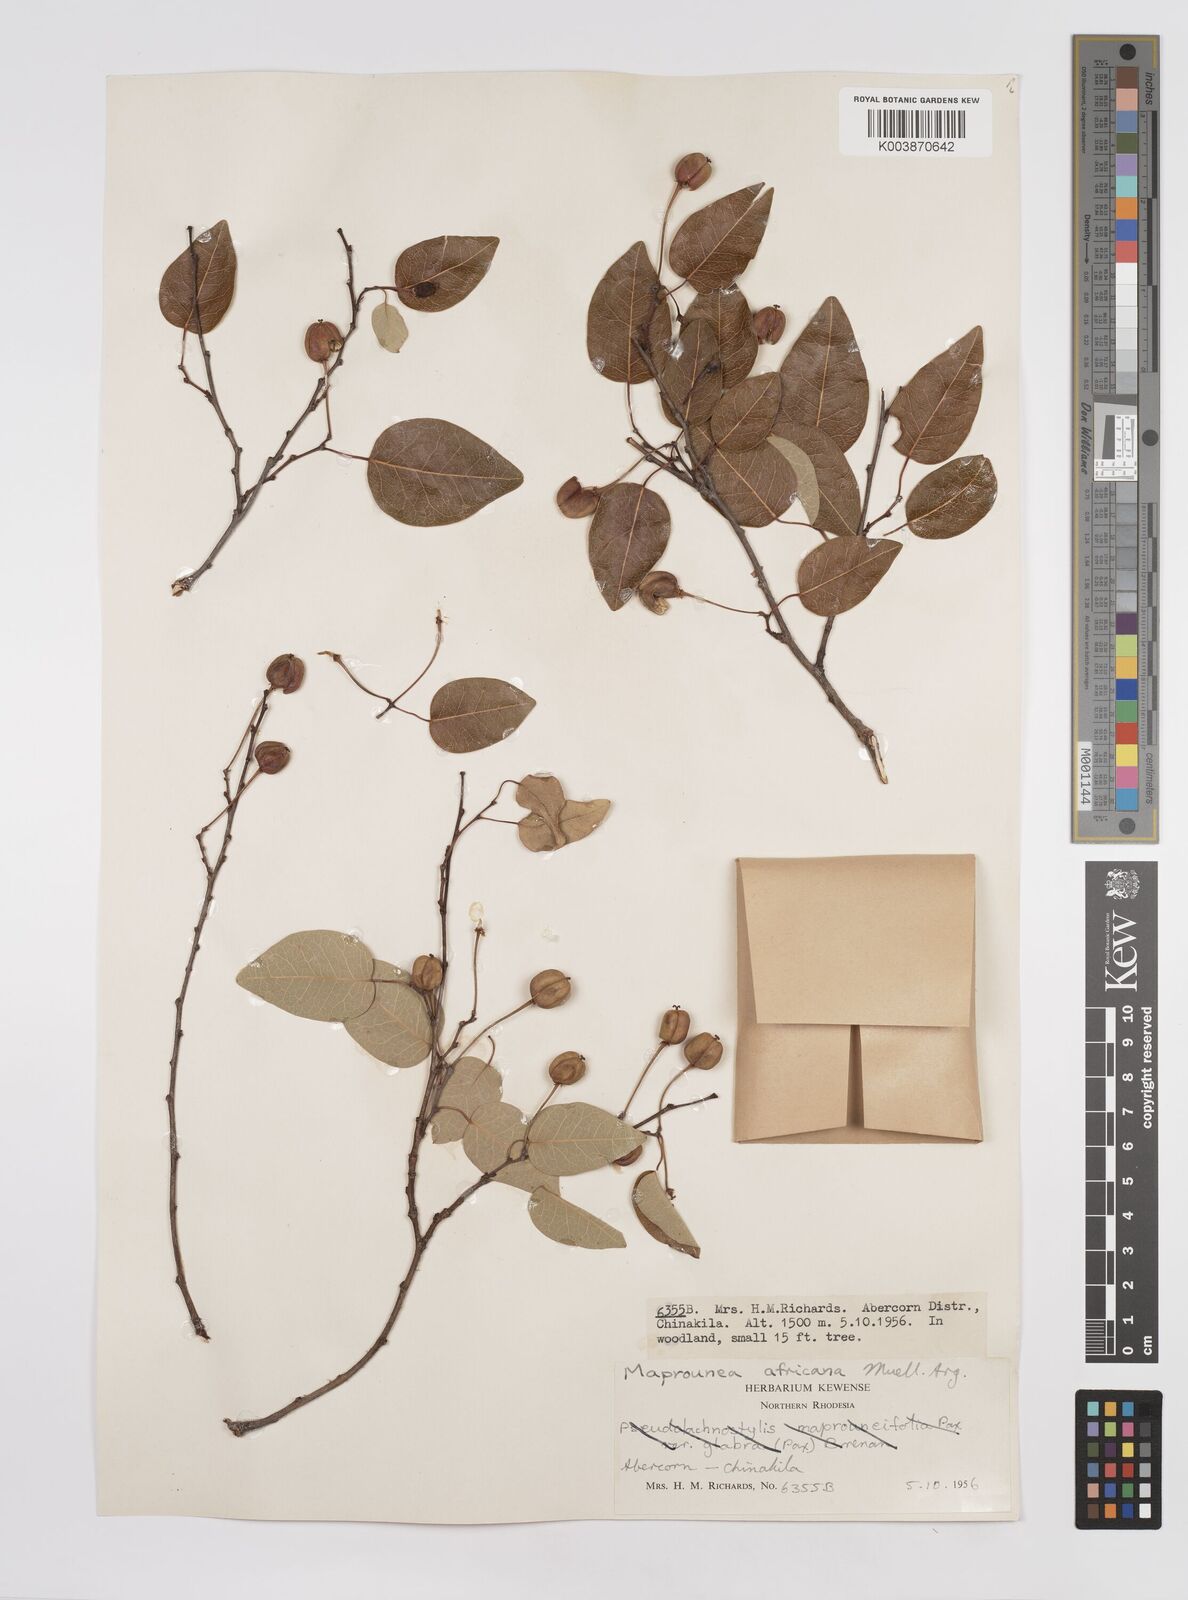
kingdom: Plantae
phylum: Tracheophyta
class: Magnoliopsida
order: Malpighiales
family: Euphorbiaceae
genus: Maprounea
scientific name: Maprounea africana
